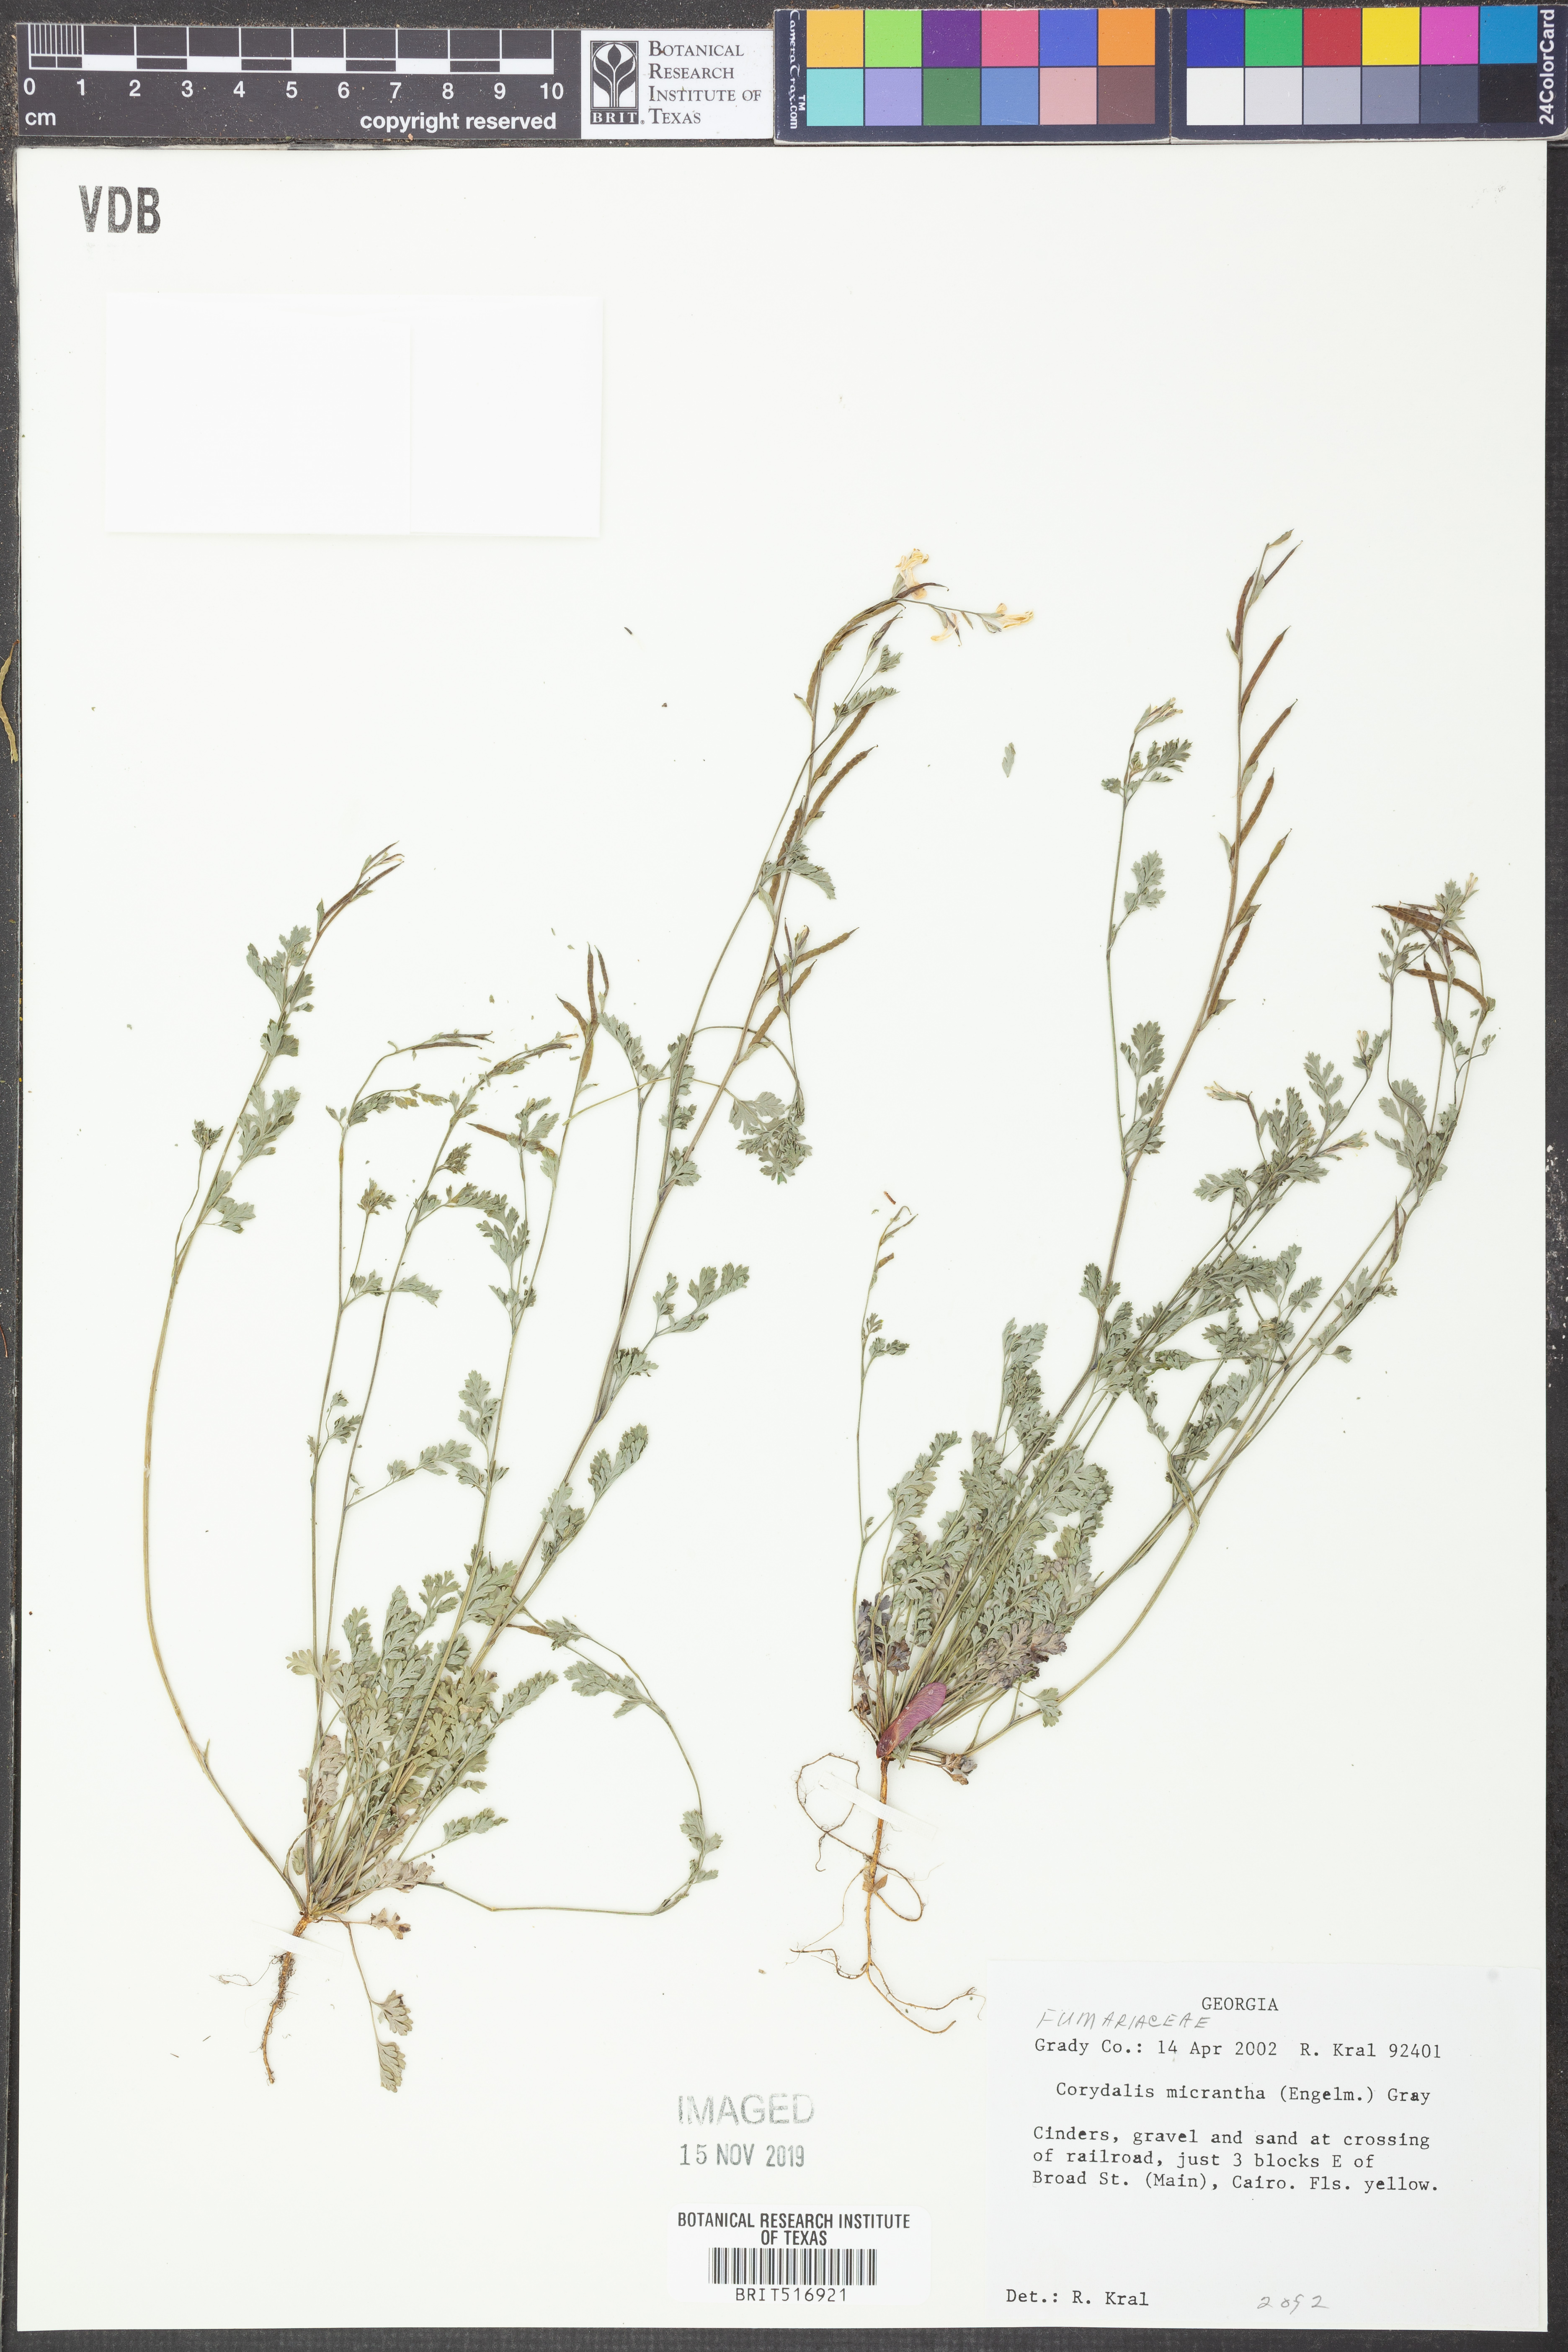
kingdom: Plantae
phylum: Tracheophyta
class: Magnoliopsida
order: Ranunculales
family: Papaveraceae
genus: Corydalis
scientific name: Corydalis micrantha
